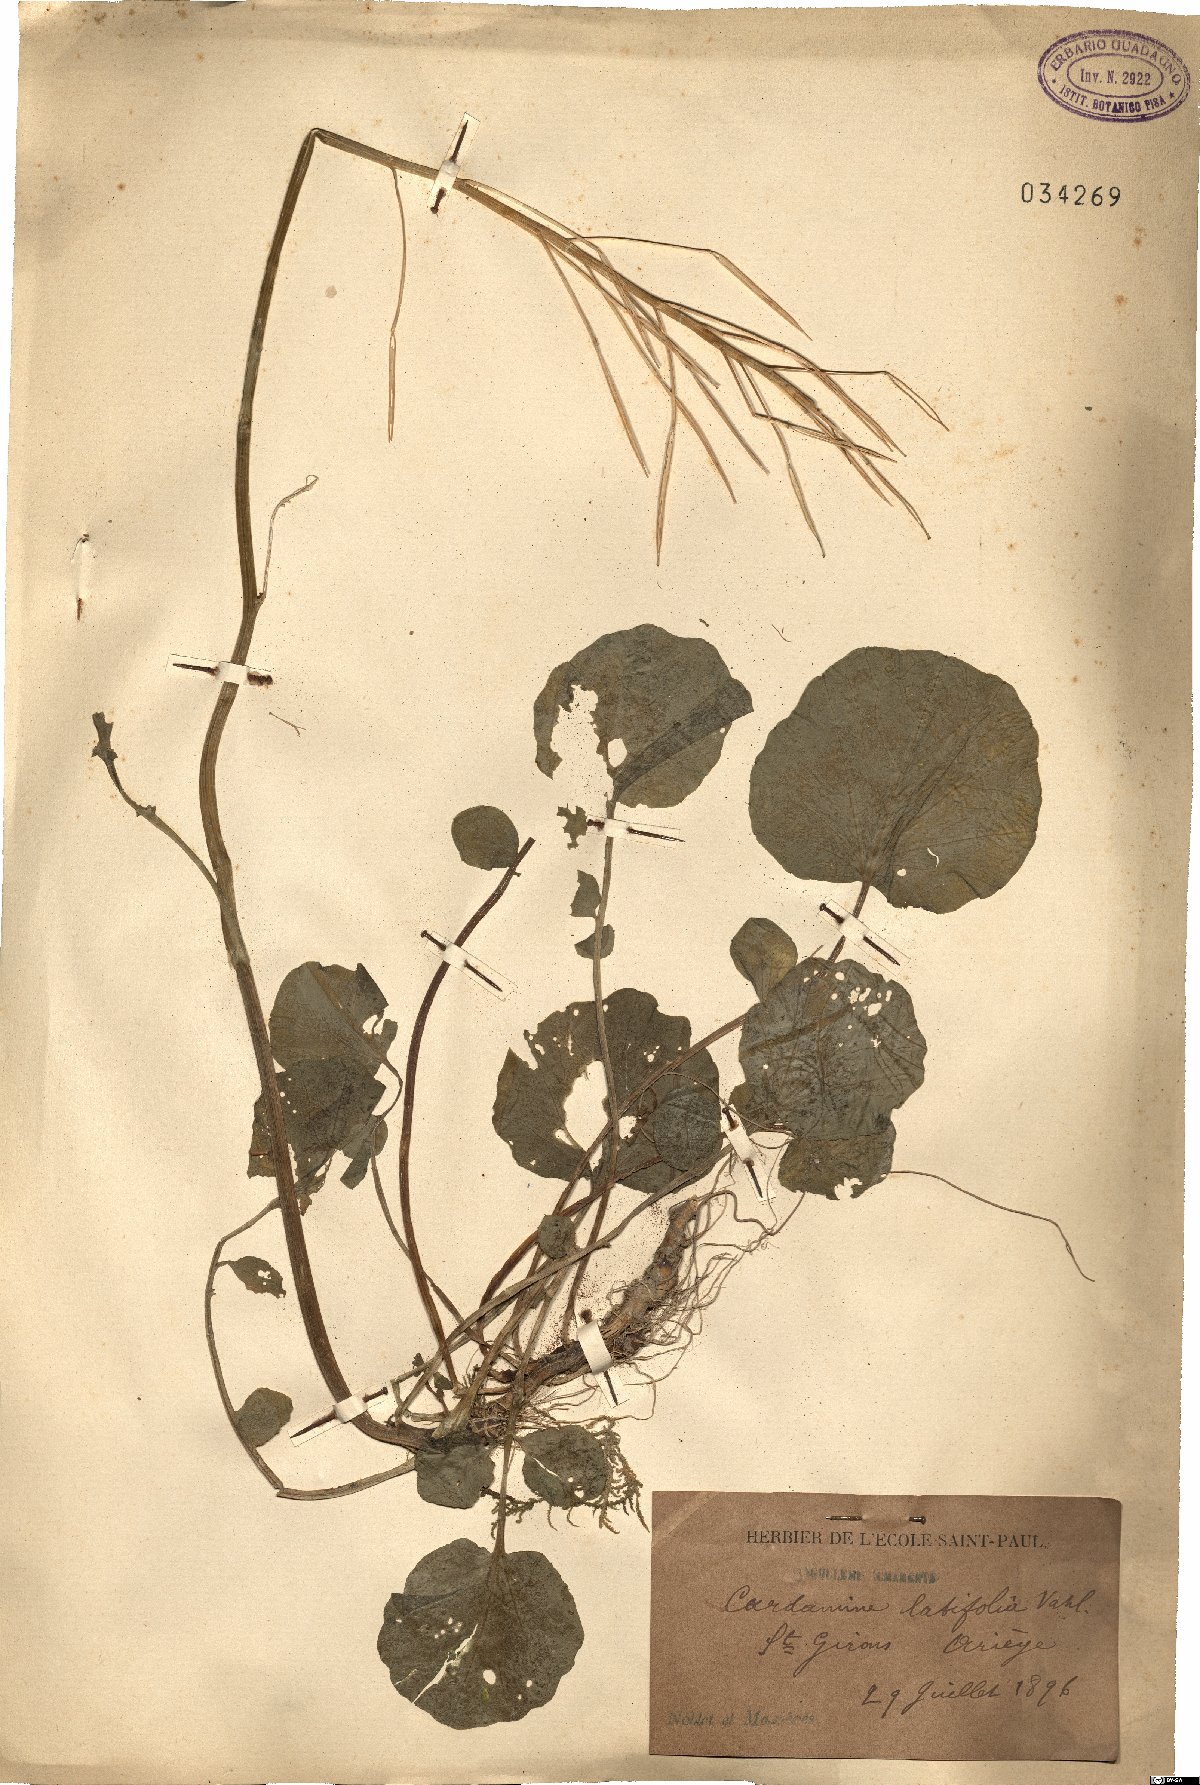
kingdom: Plantae
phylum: Tracheophyta
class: Magnoliopsida
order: Brassicales
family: Brassicaceae
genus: Cardamine
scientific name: Cardamine raphanifolia
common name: Greater cuckooflower
